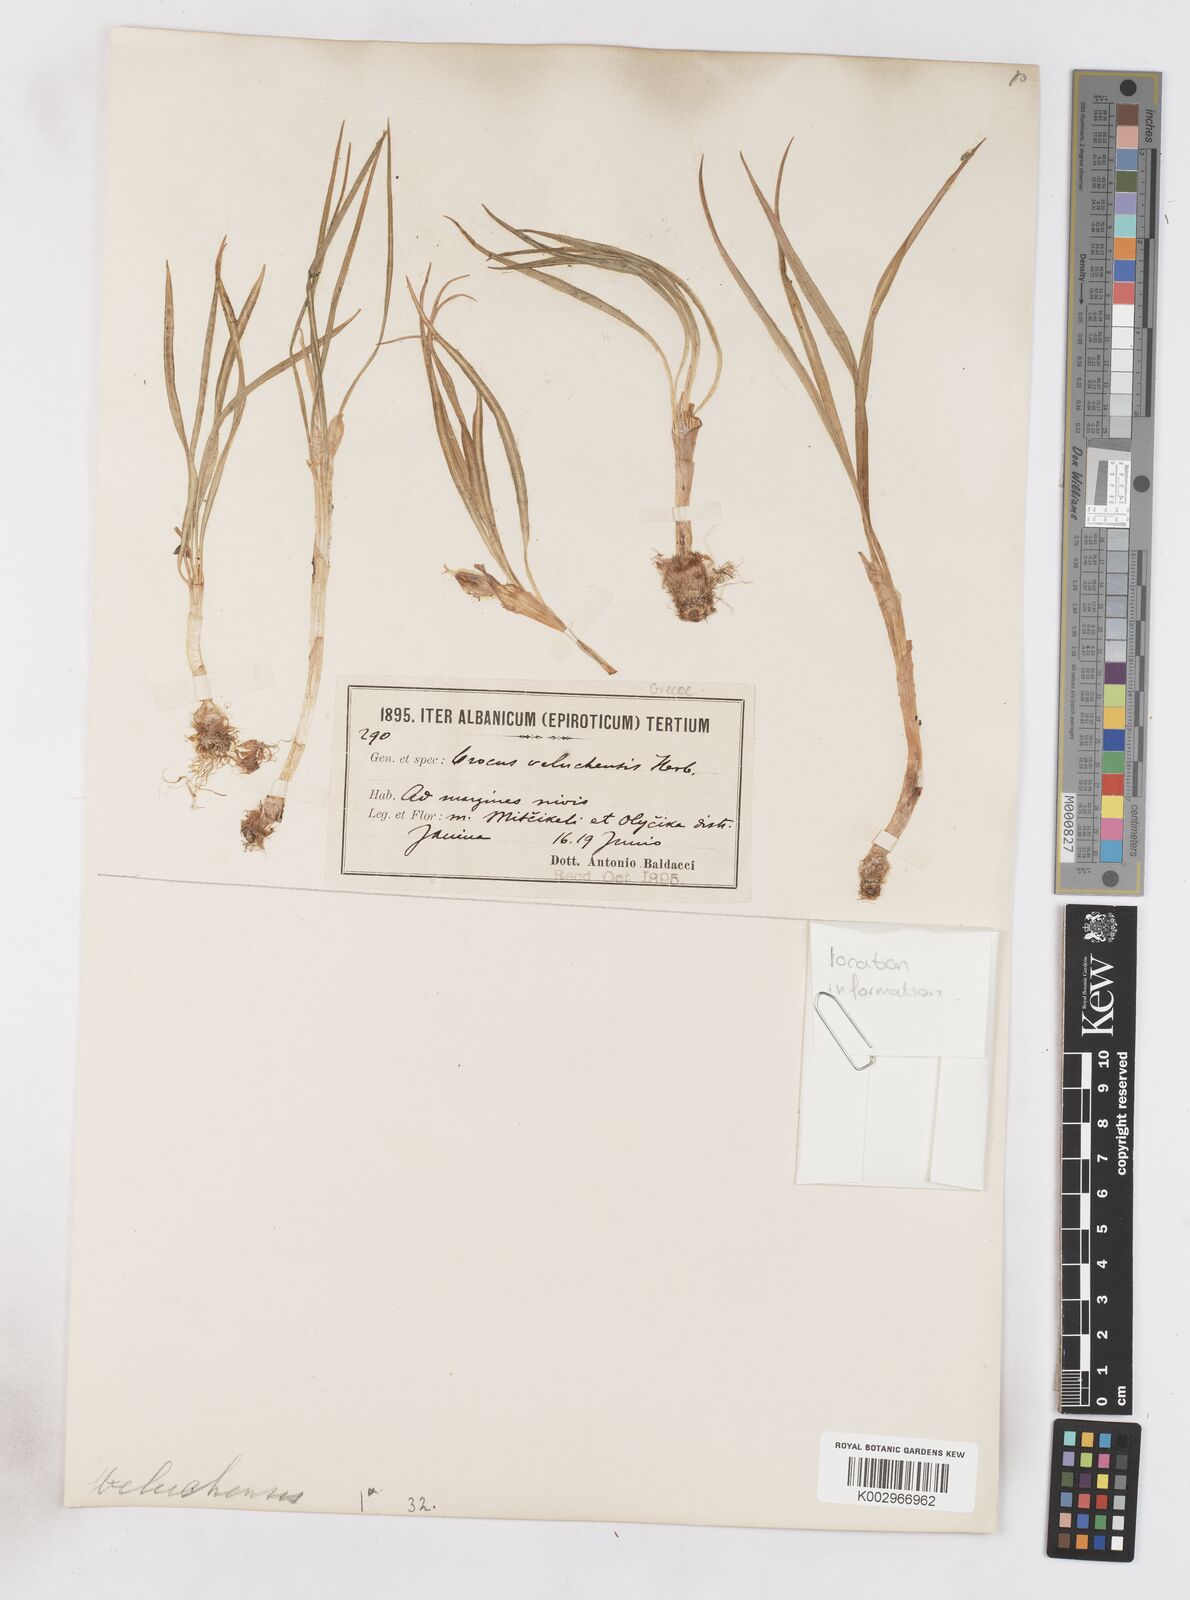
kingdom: Plantae
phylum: Tracheophyta
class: Liliopsida
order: Asparagales
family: Iridaceae
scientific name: Iridaceae
